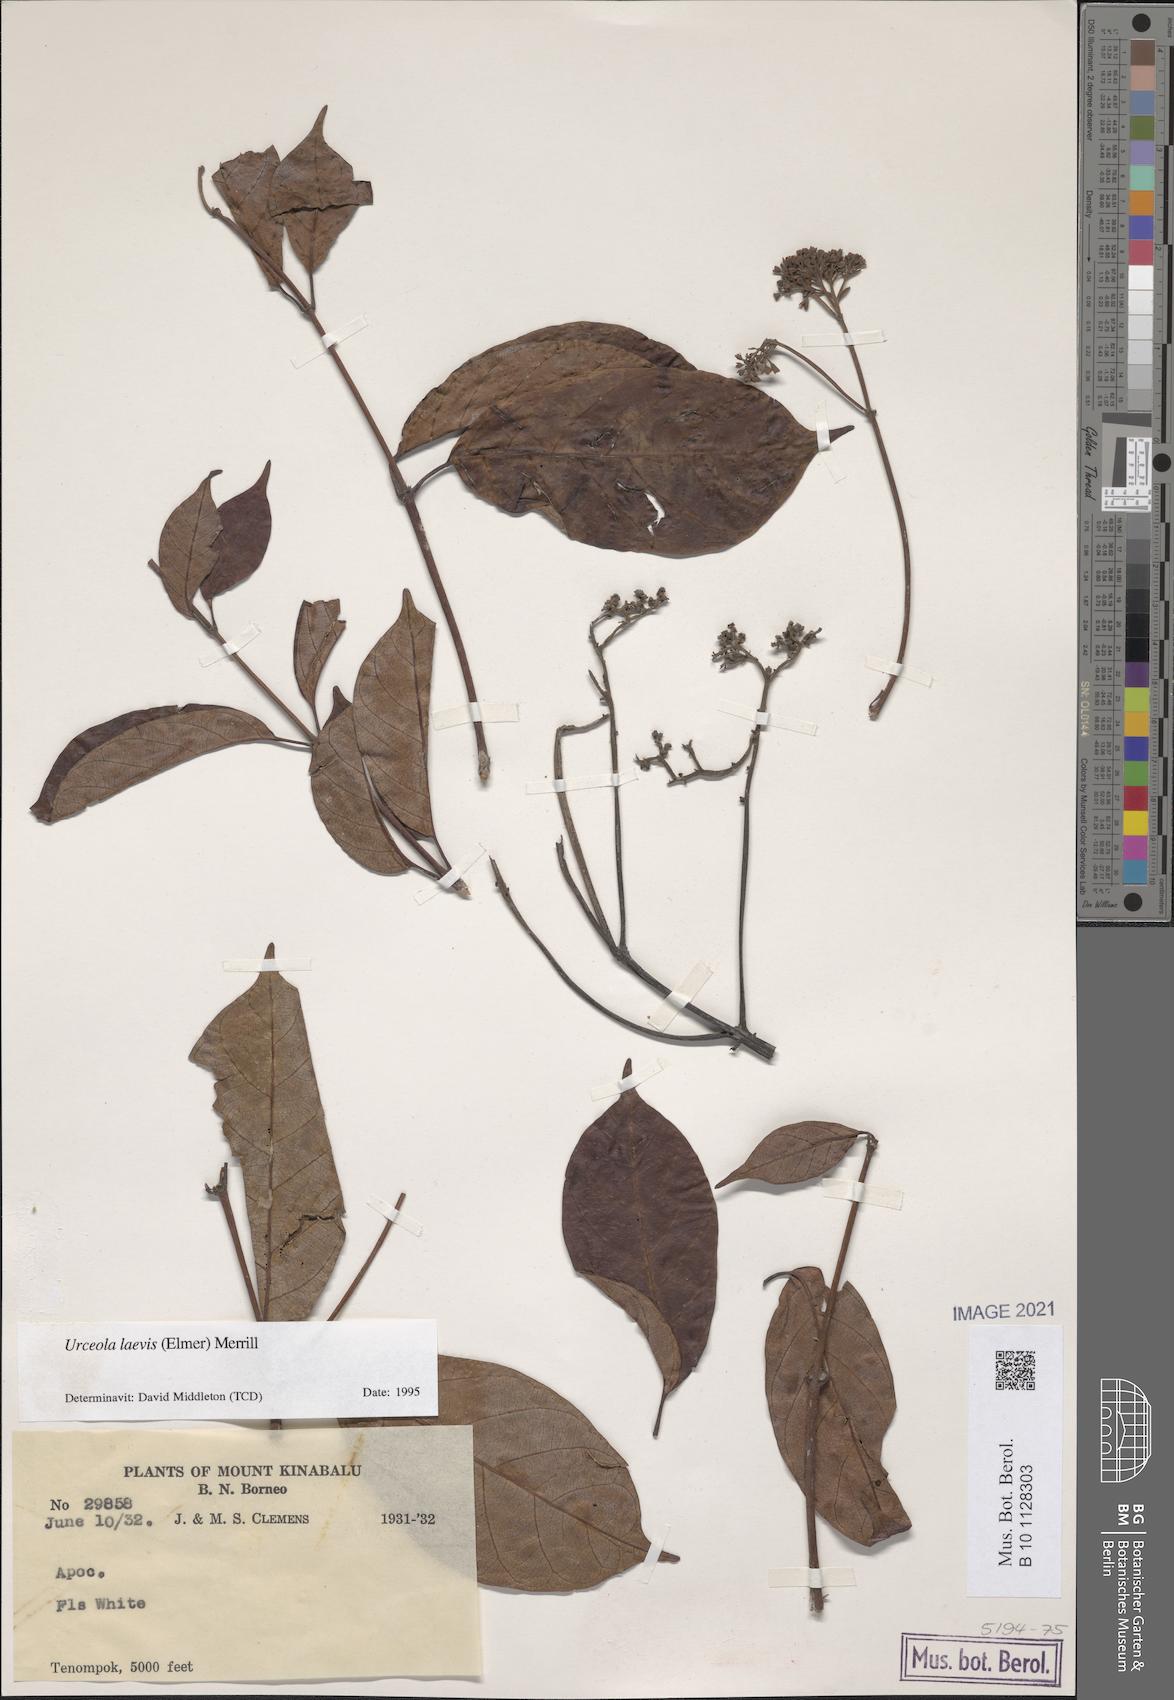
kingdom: Plantae
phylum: Tracheophyta
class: Magnoliopsida
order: Gentianales
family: Apocynaceae
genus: Urceola
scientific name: Urceola laevis
